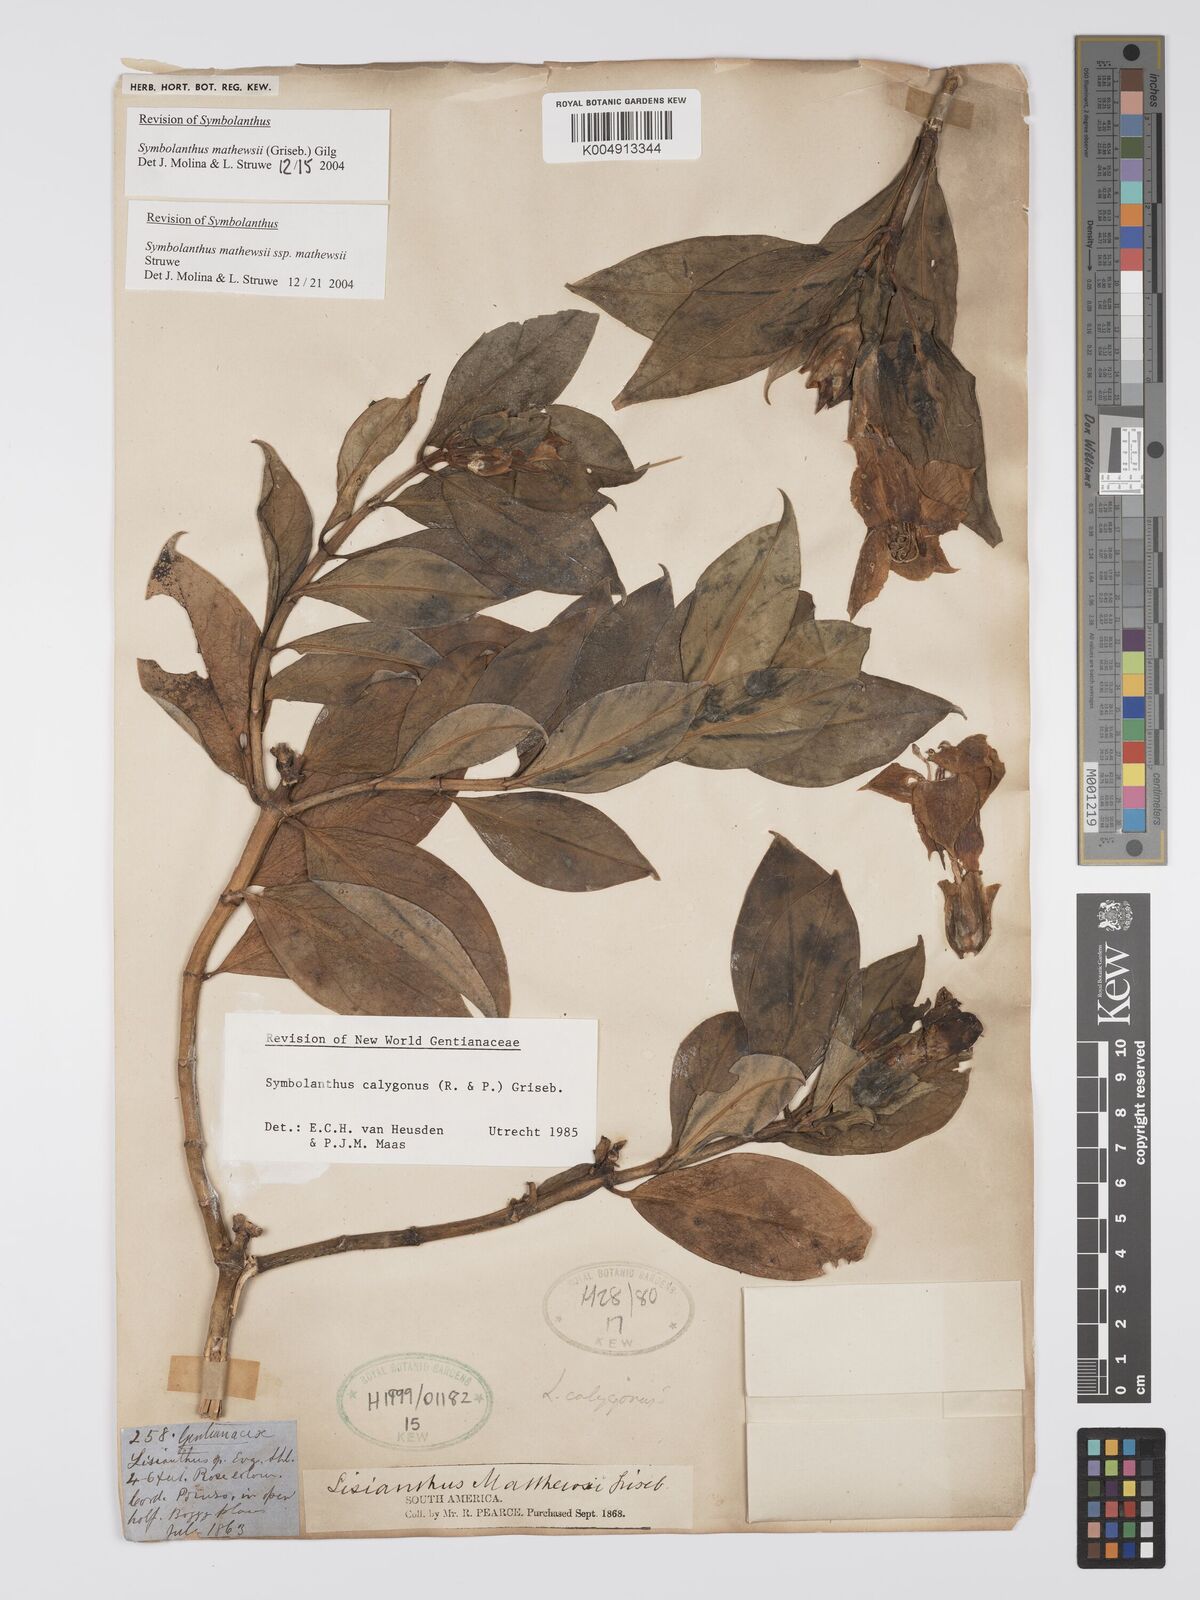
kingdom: Plantae
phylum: Tracheophyta
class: Magnoliopsida
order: Gentianales
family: Gentianaceae
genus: Symbolanthus
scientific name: Symbolanthus mathewsii
